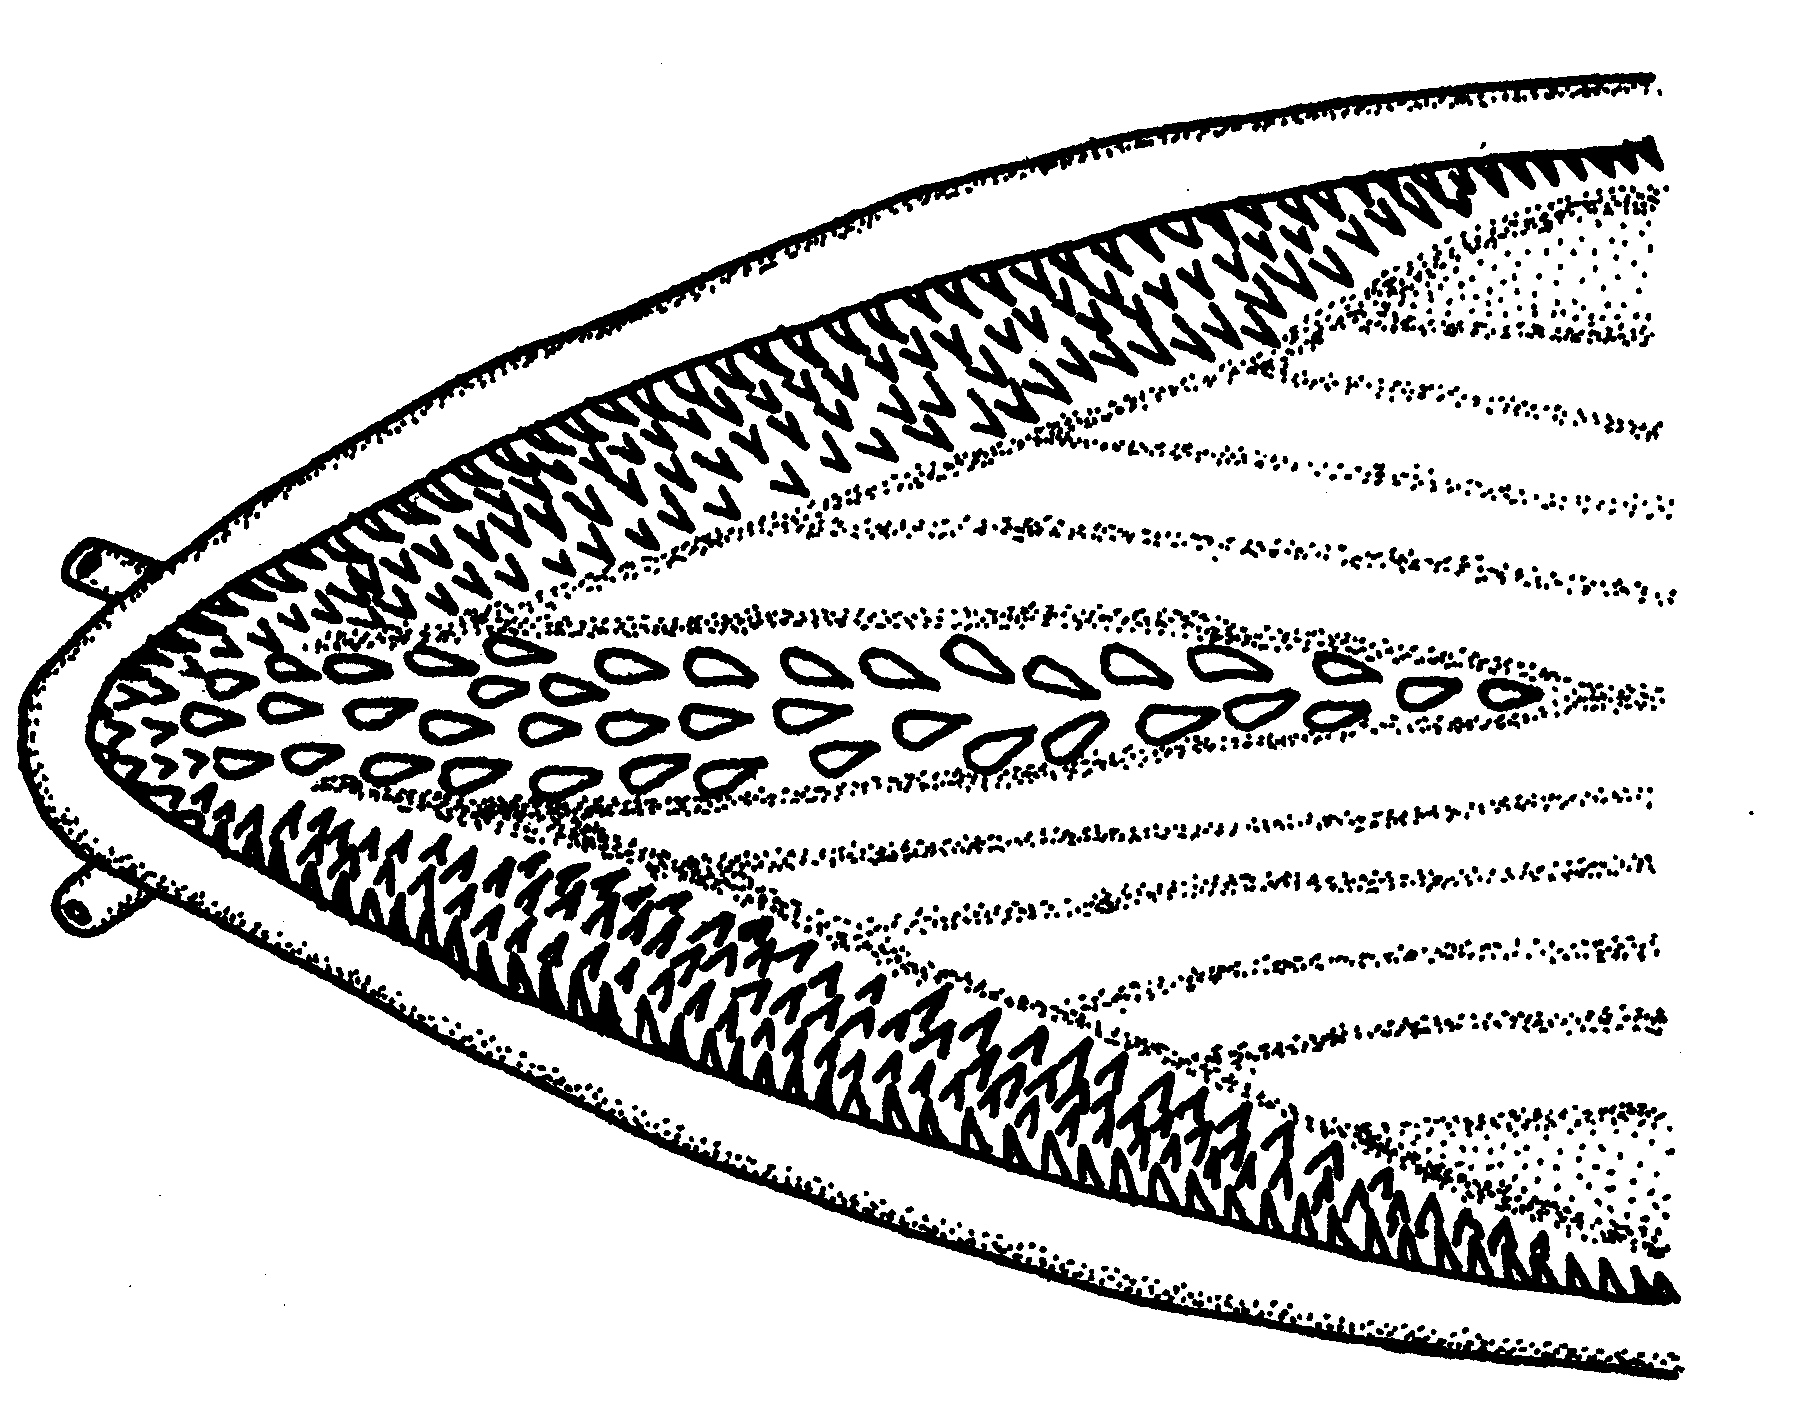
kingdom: Animalia
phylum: Chordata
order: Anguilliformes
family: Myrocongridae
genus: Myroconger
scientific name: Myroconger seychellensis
